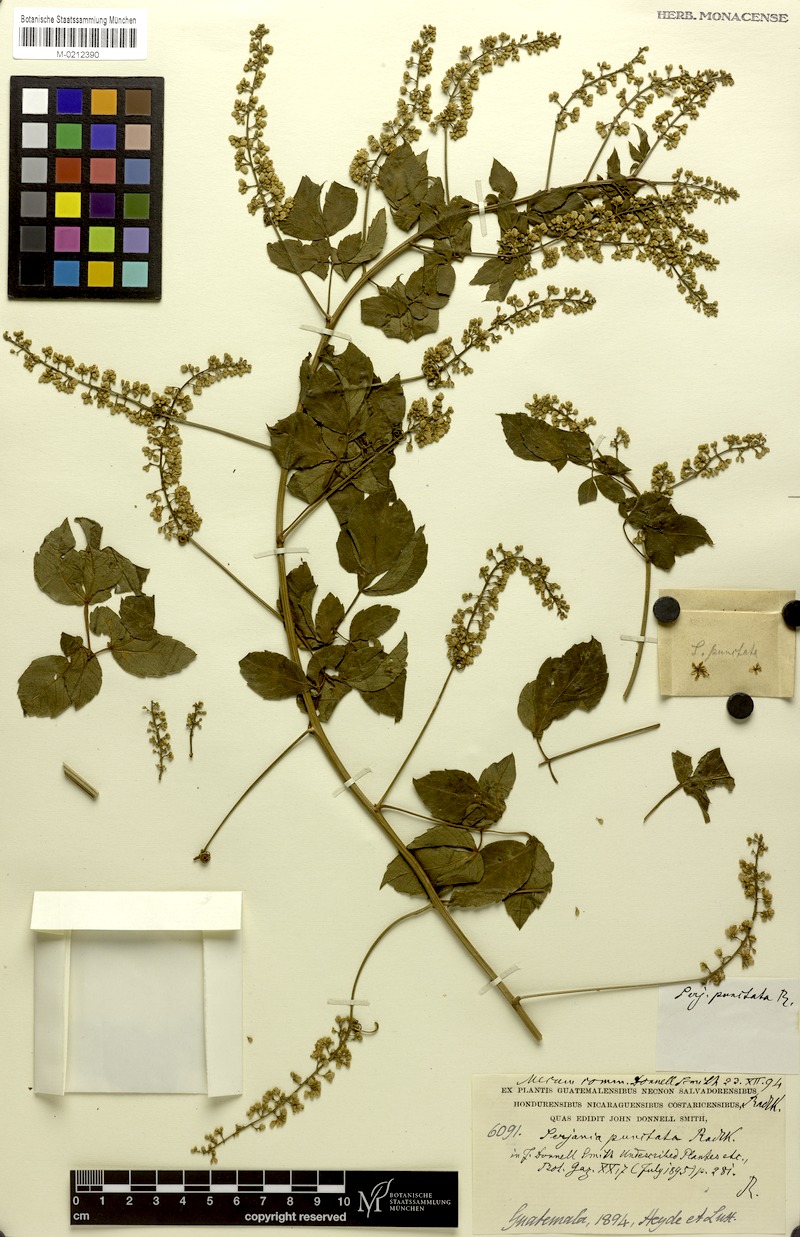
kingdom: Plantae
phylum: Tracheophyta
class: Magnoliopsida
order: Sapindales
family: Sapindaceae
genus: Serjania
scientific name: Serjania punctata
